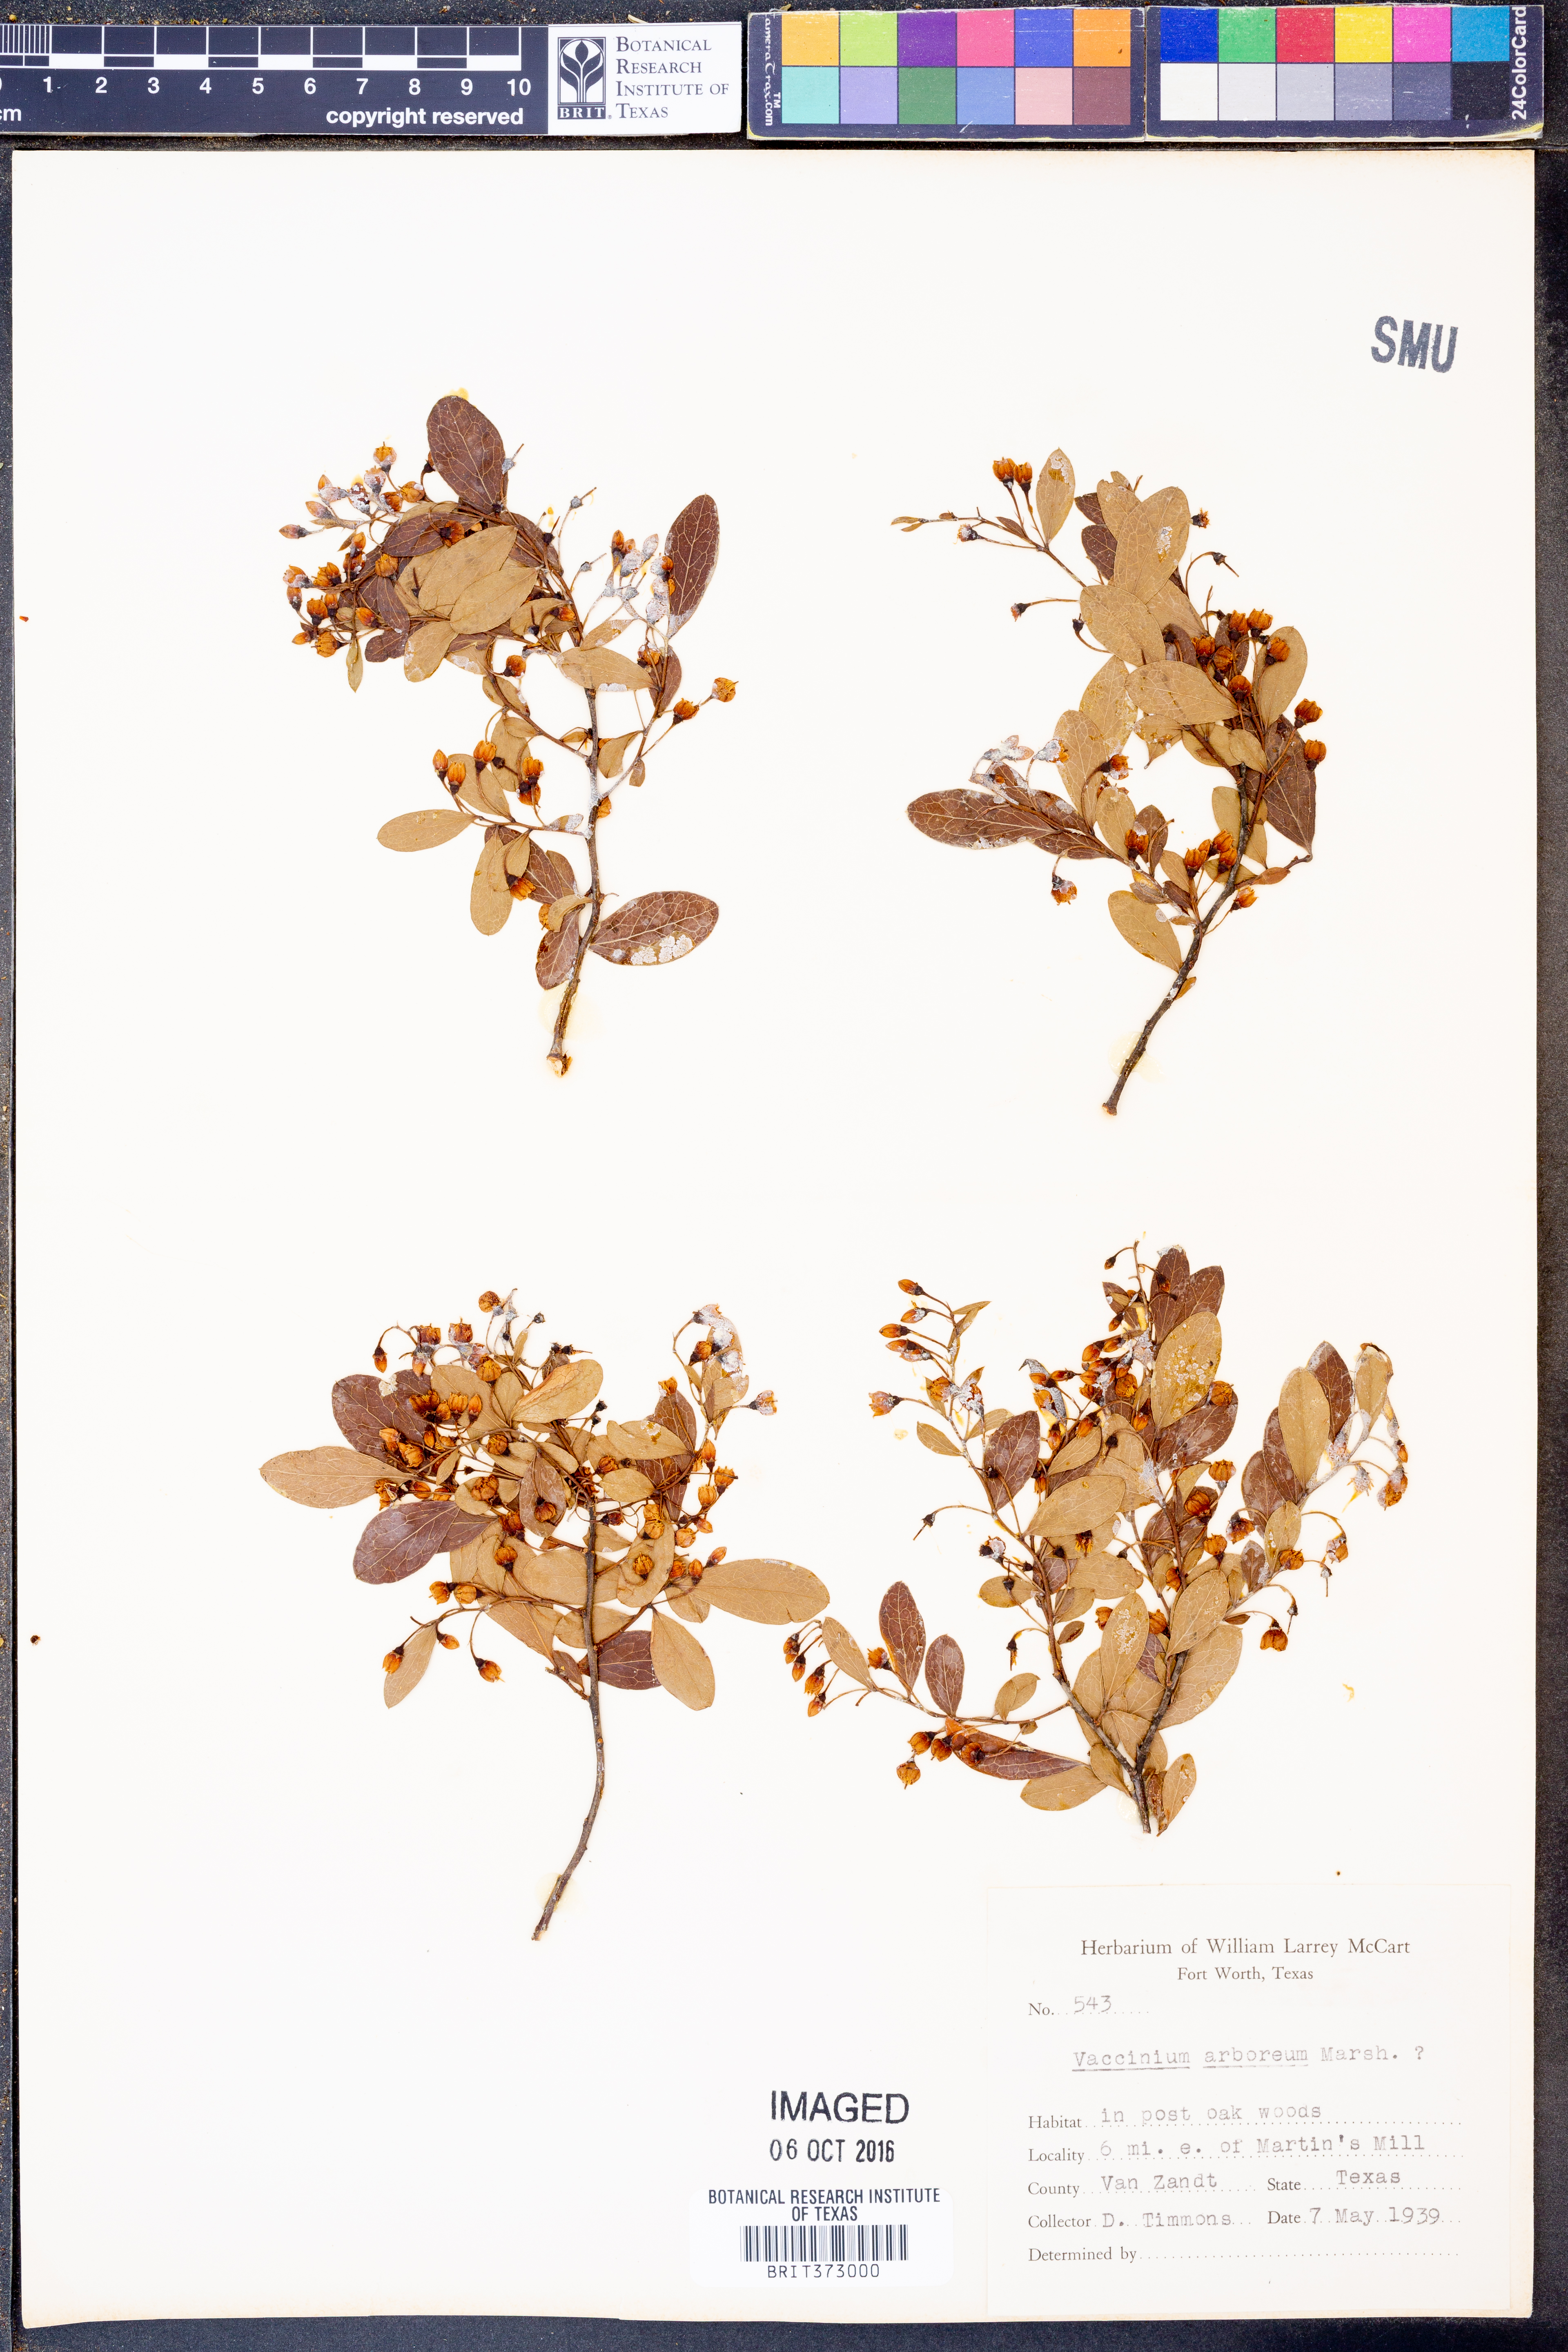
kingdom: Plantae
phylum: Tracheophyta
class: Magnoliopsida
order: Ericales
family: Ericaceae
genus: Vaccinium
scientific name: Vaccinium arboreum
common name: Farkleberry
